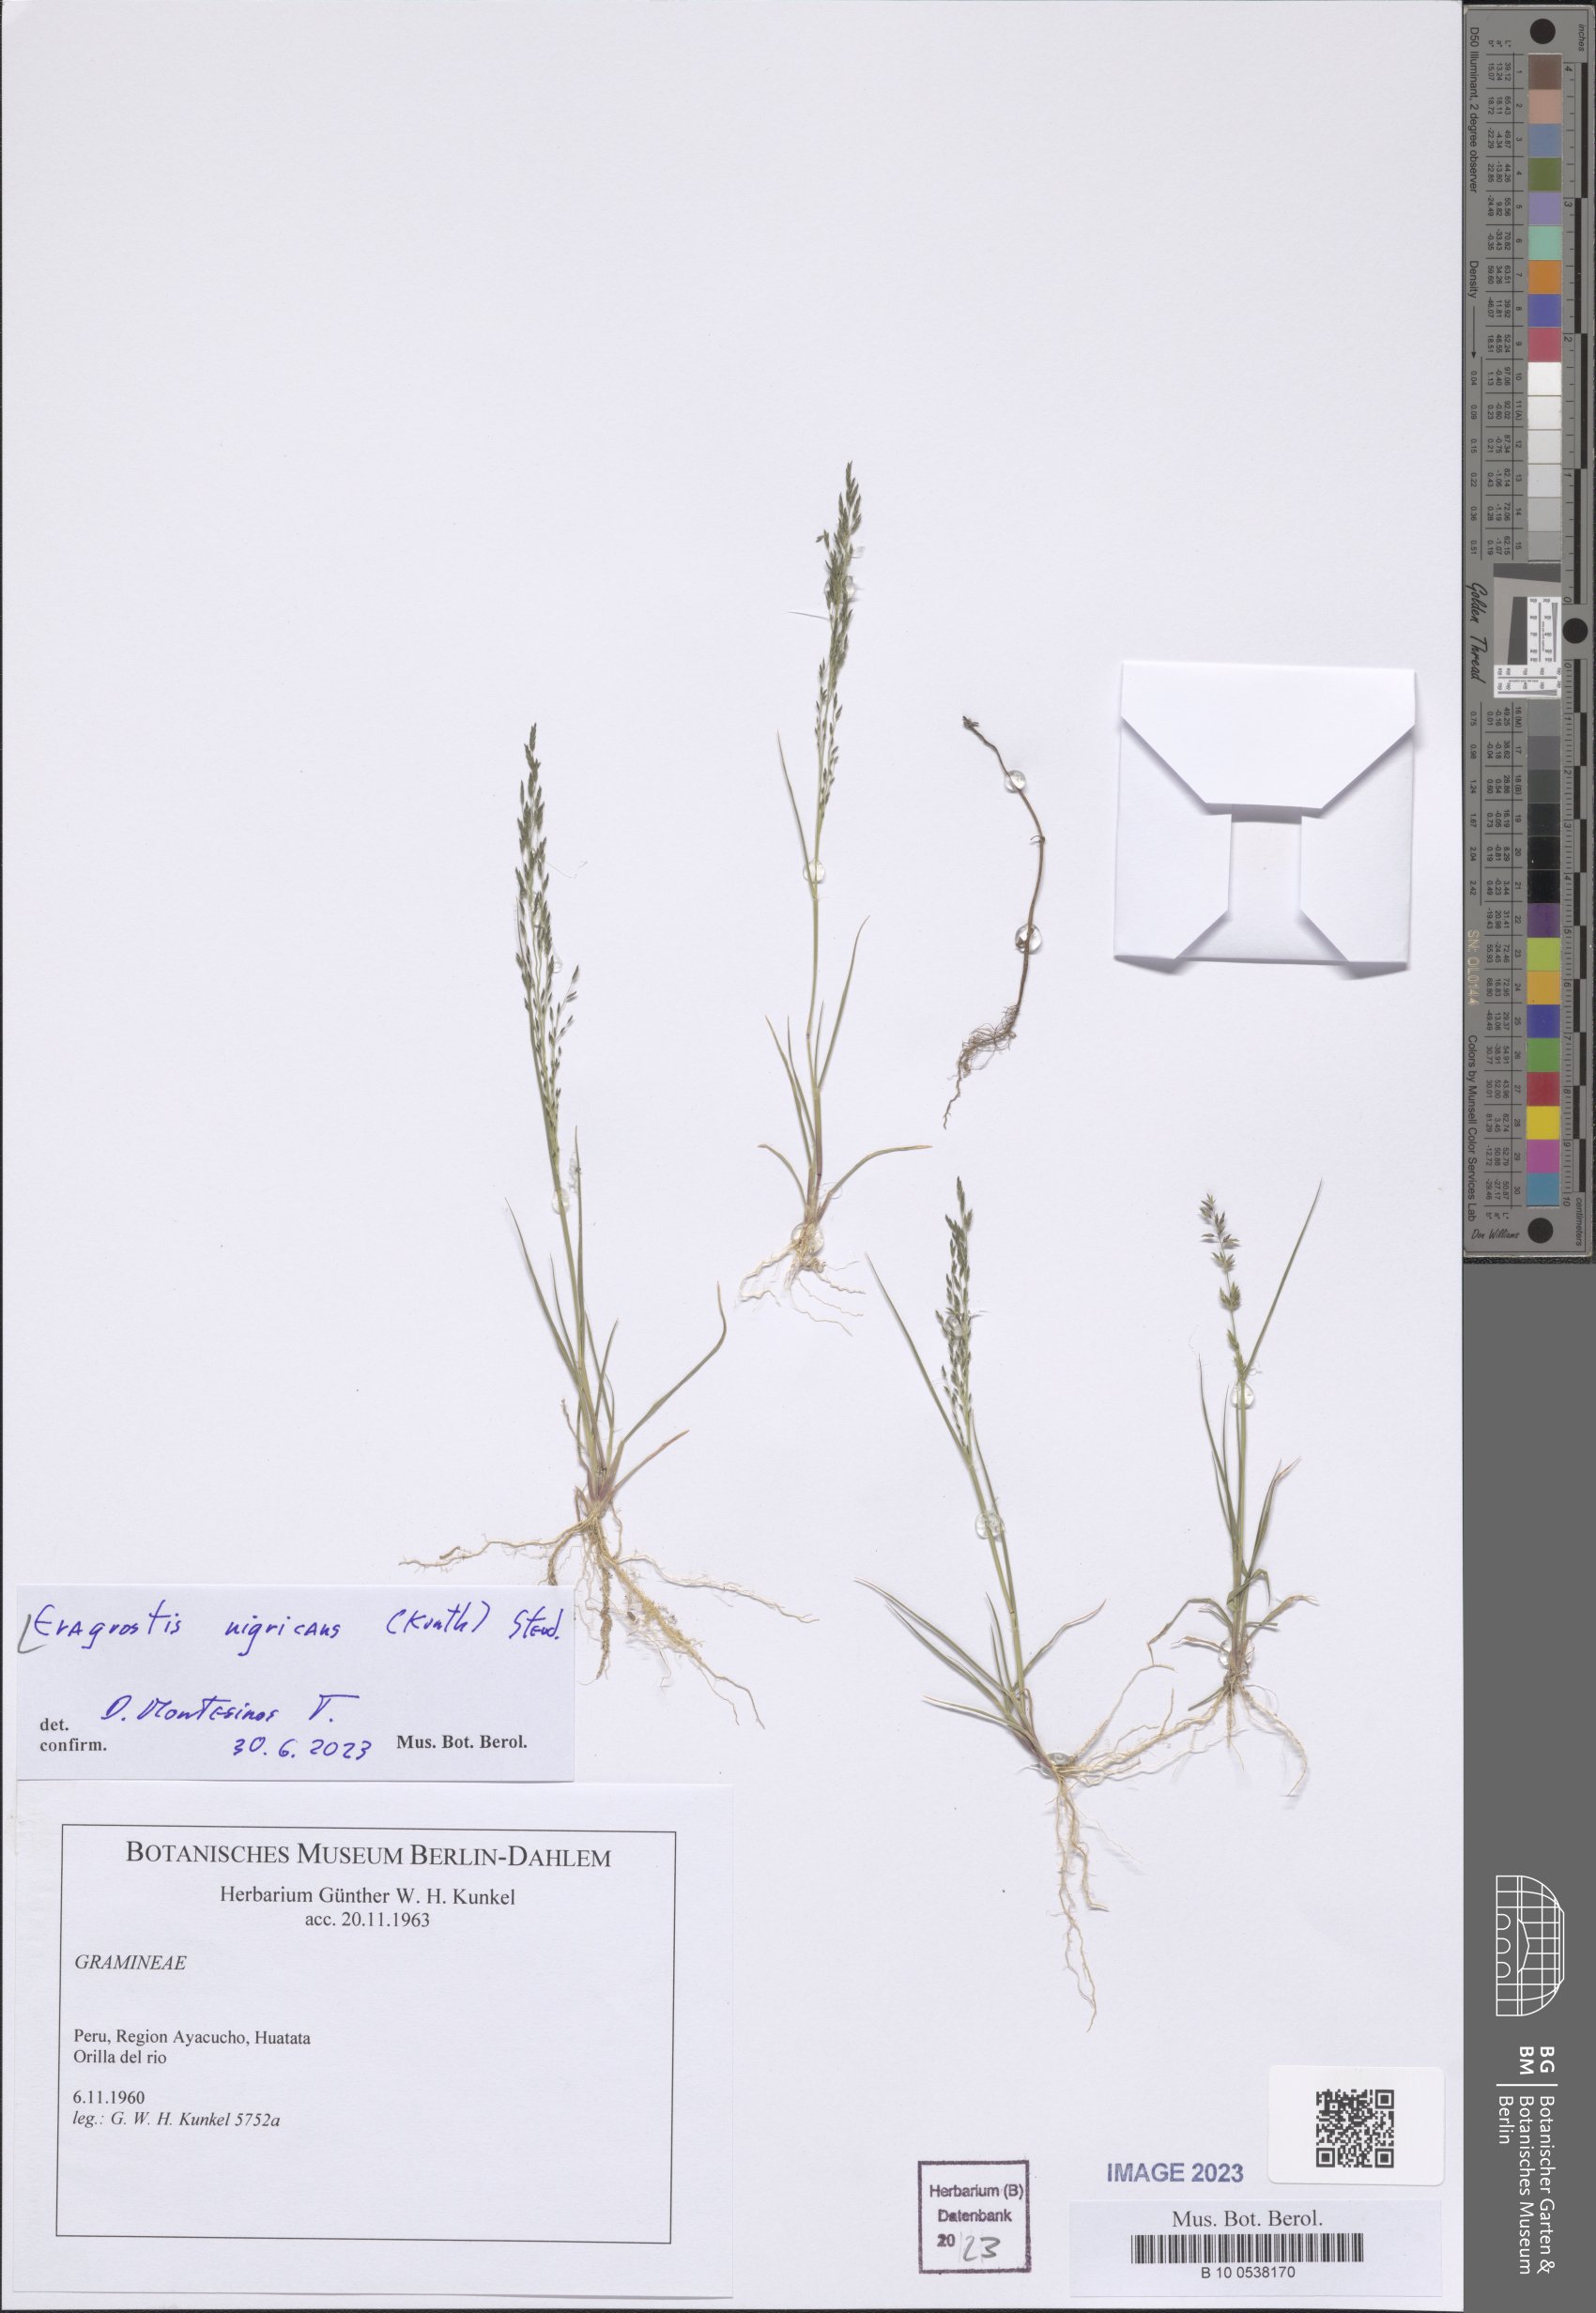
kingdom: Plantae
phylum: Tracheophyta
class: Liliopsida
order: Poales
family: Poaceae
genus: Eragrostis
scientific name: Eragrostis nigricans
